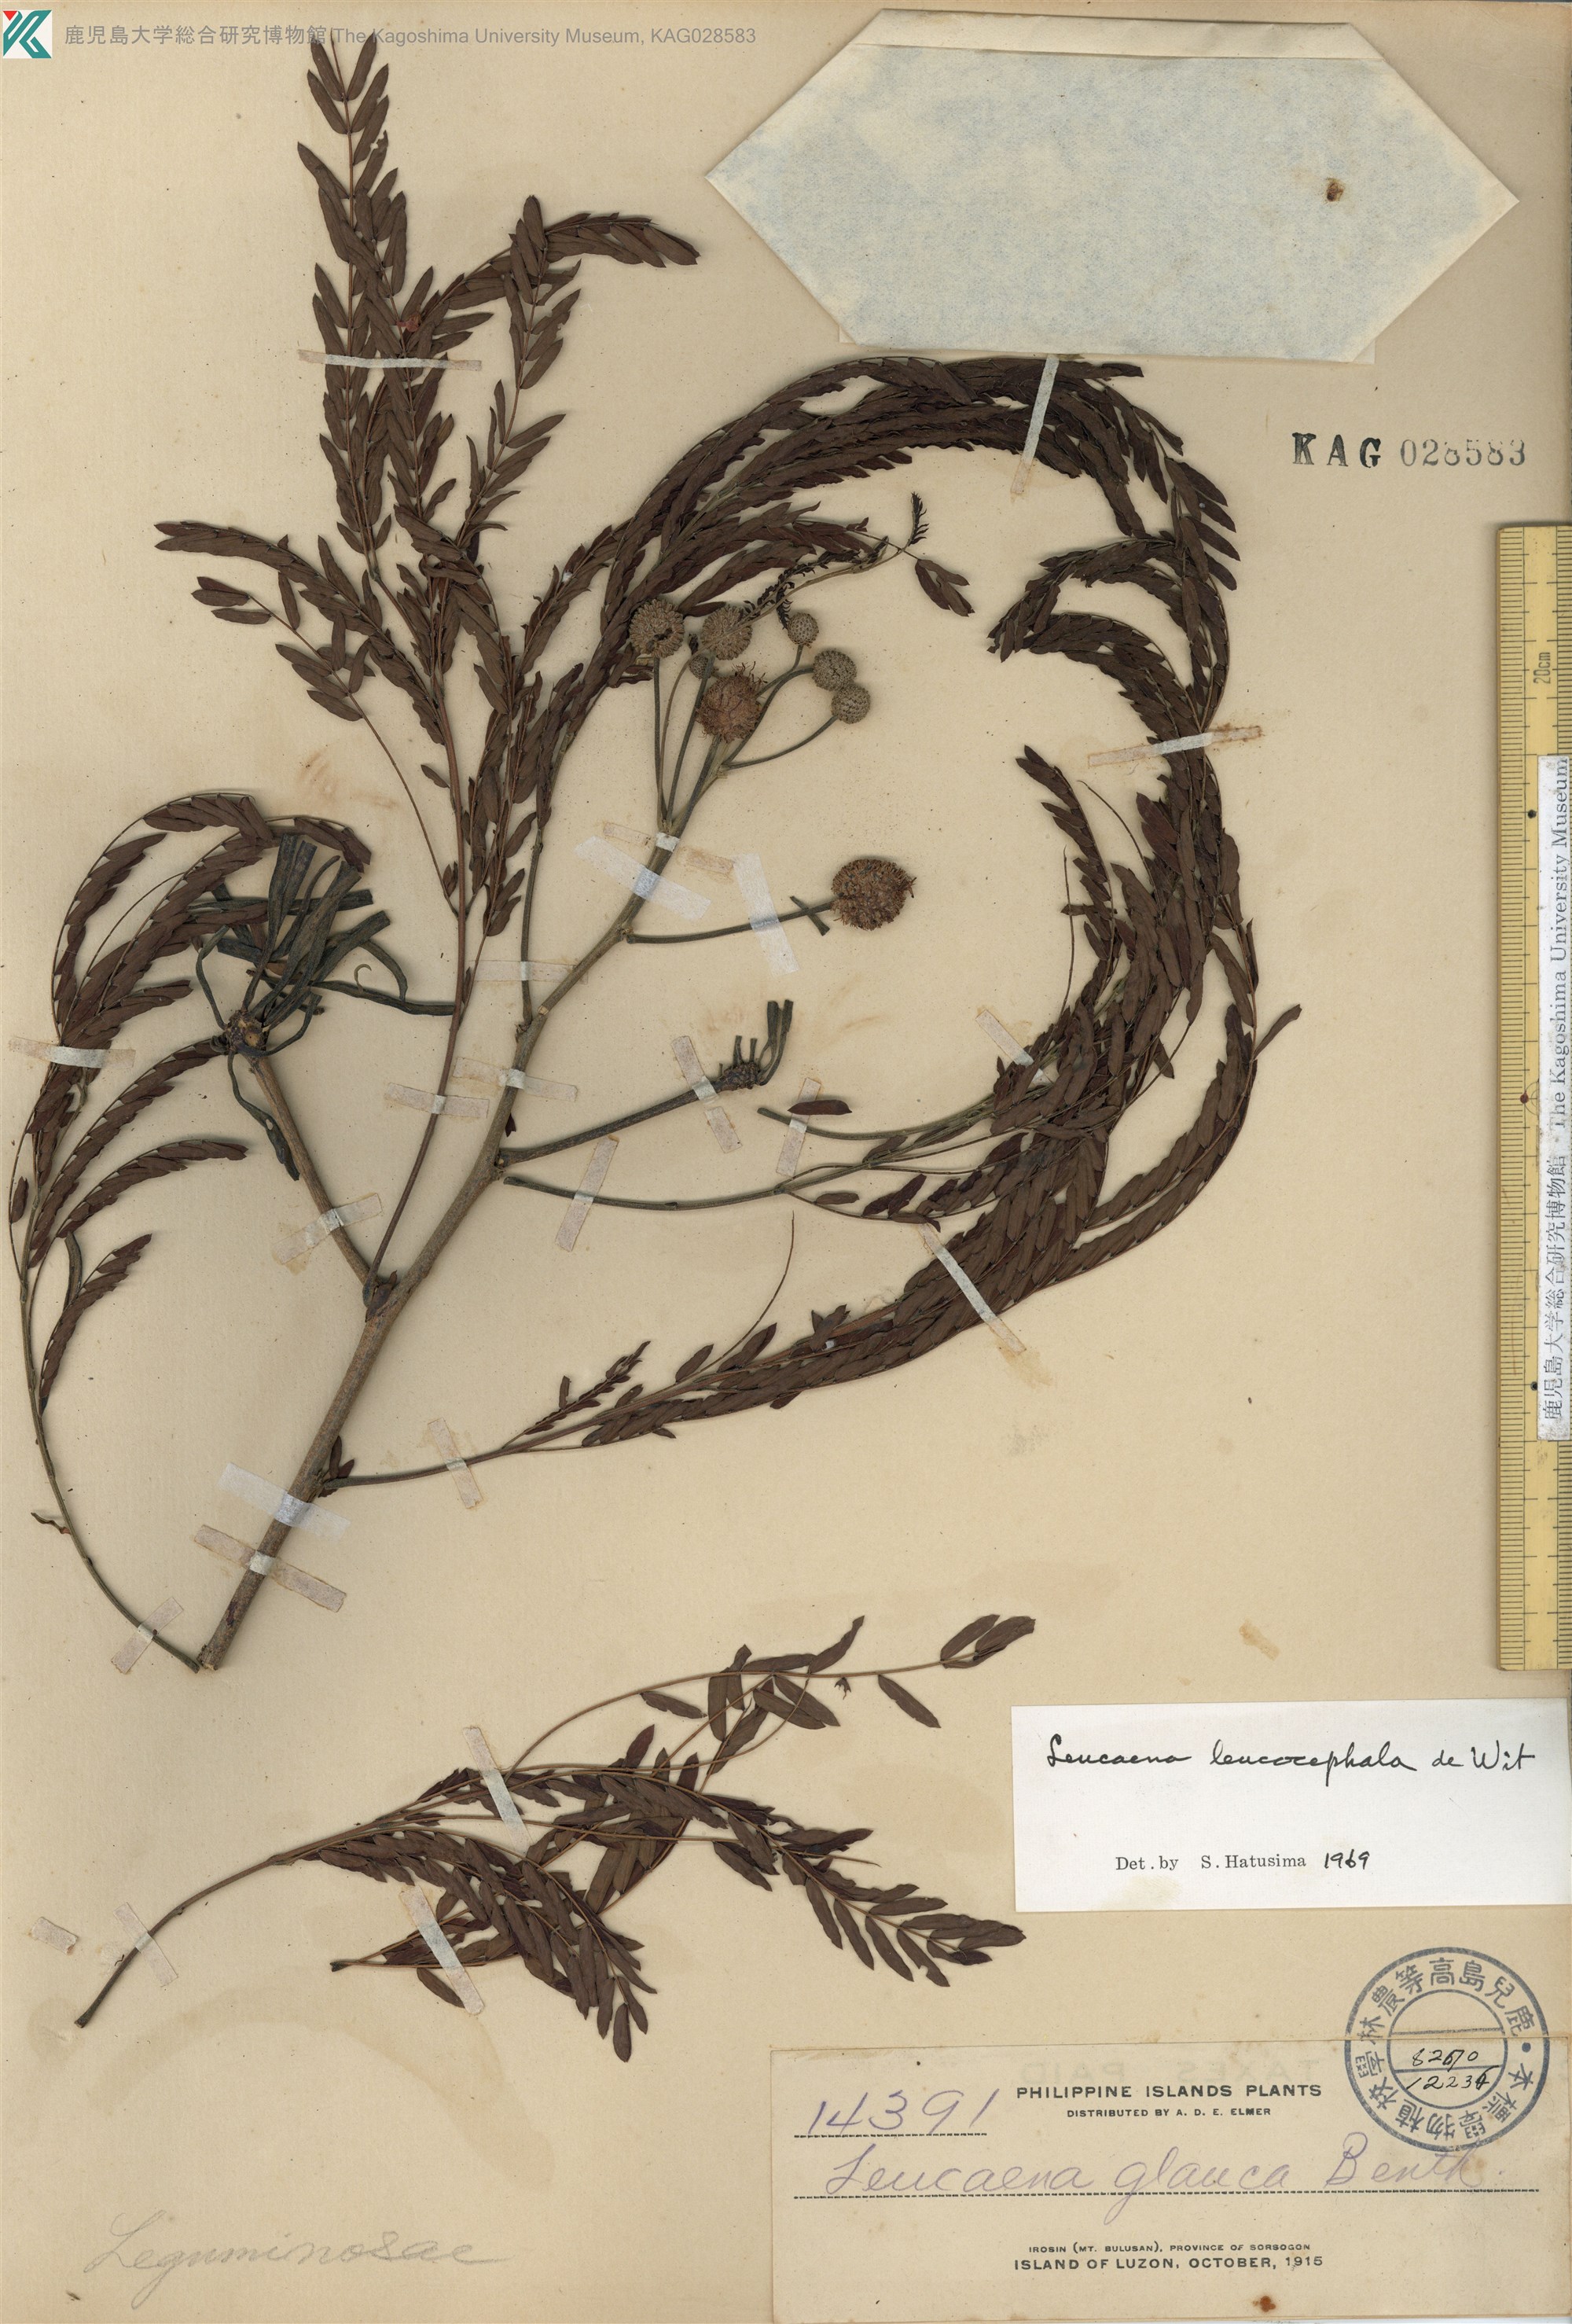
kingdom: Plantae
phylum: Tracheophyta
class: Magnoliopsida
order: Fabales
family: Fabaceae
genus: Leucaena
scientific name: Leucaena leucocephala
